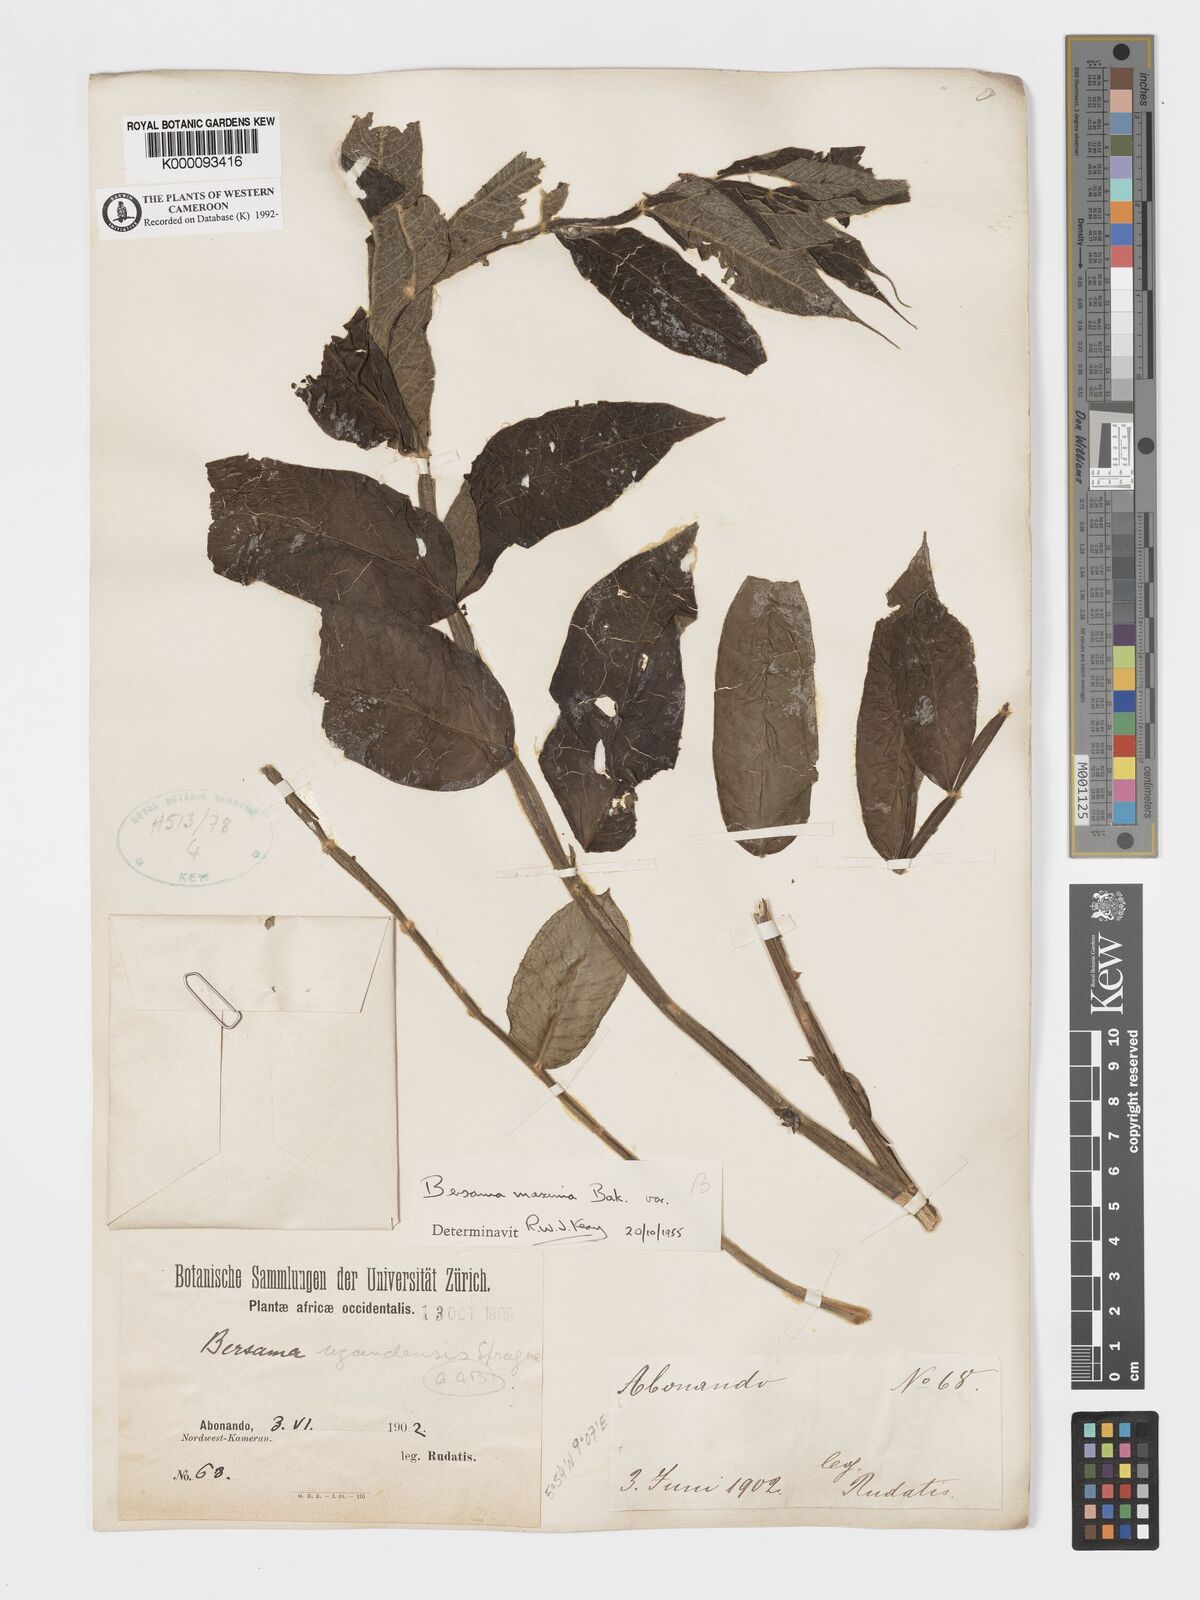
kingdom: Plantae
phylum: Tracheophyta
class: Magnoliopsida
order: Geraniales
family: Melianthaceae
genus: Bersama
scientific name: Bersama abyssinica
